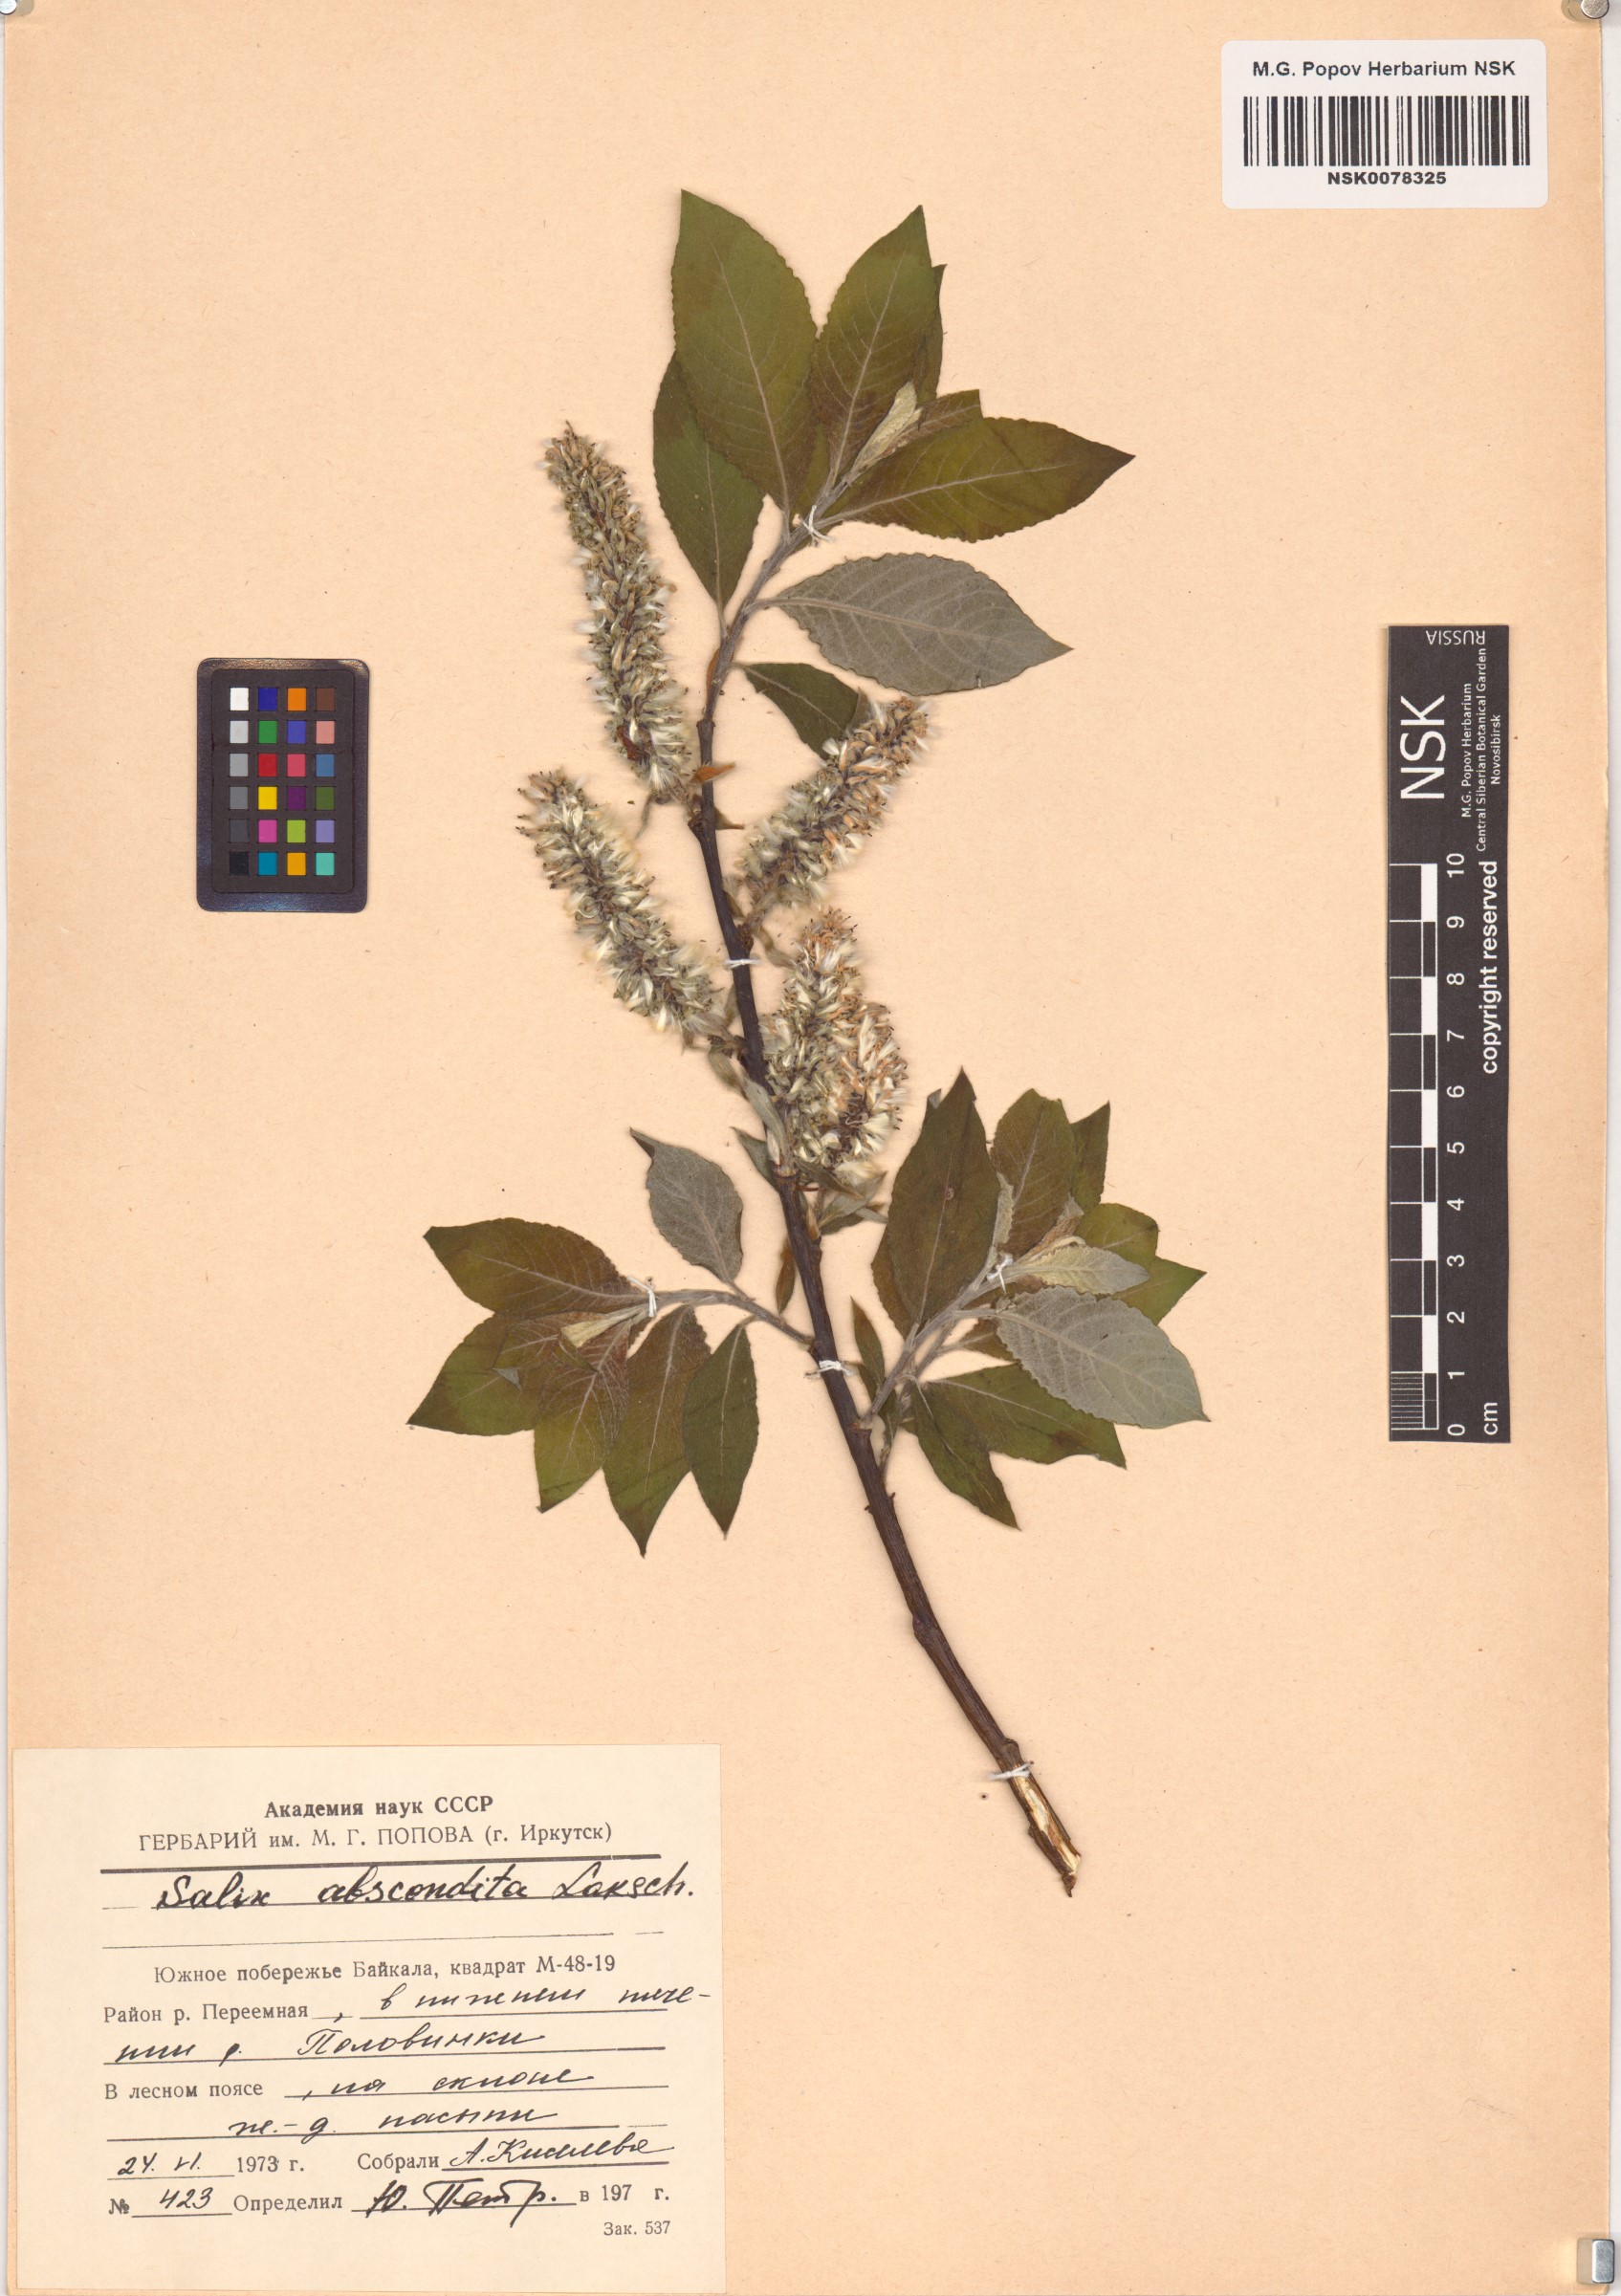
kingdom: Plantae
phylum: Tracheophyta
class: Magnoliopsida
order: Malpighiales
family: Salicaceae
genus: Salix
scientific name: Salix abscondita
